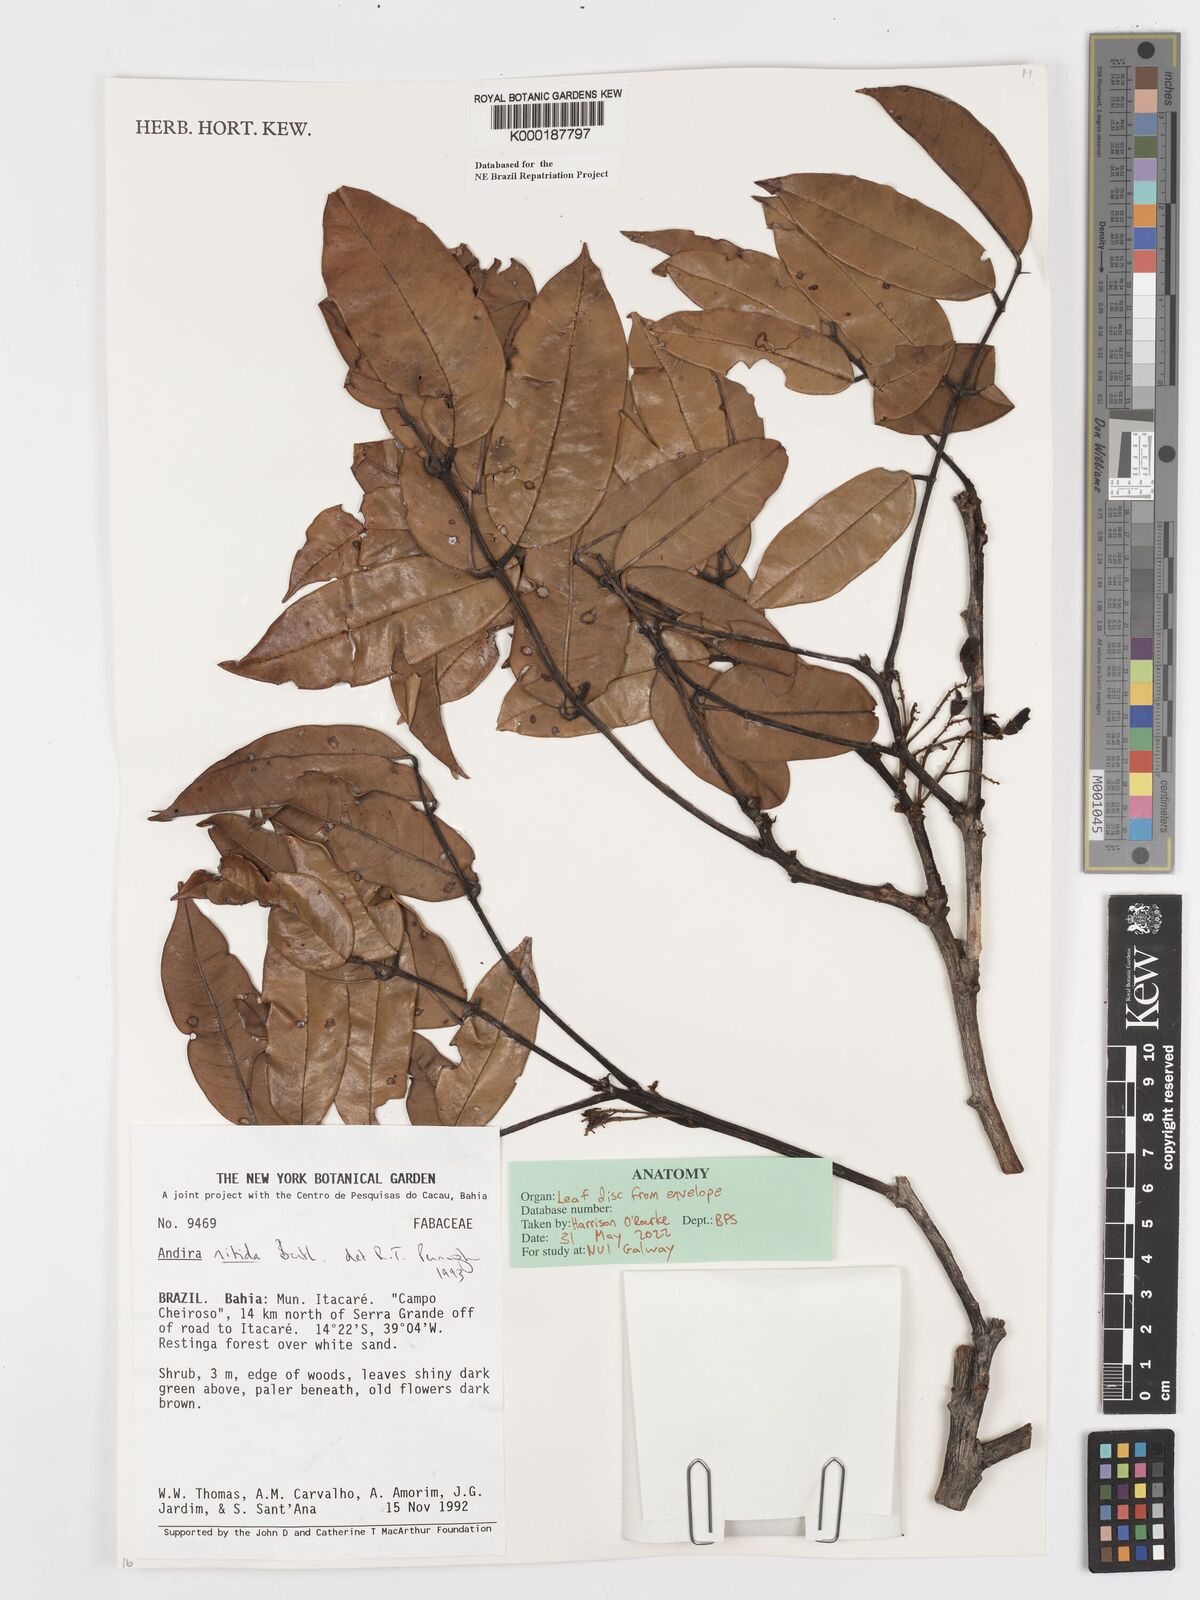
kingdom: Plantae
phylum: Tracheophyta
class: Magnoliopsida
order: Fabales
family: Fabaceae
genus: Andira
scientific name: Andira nitida
